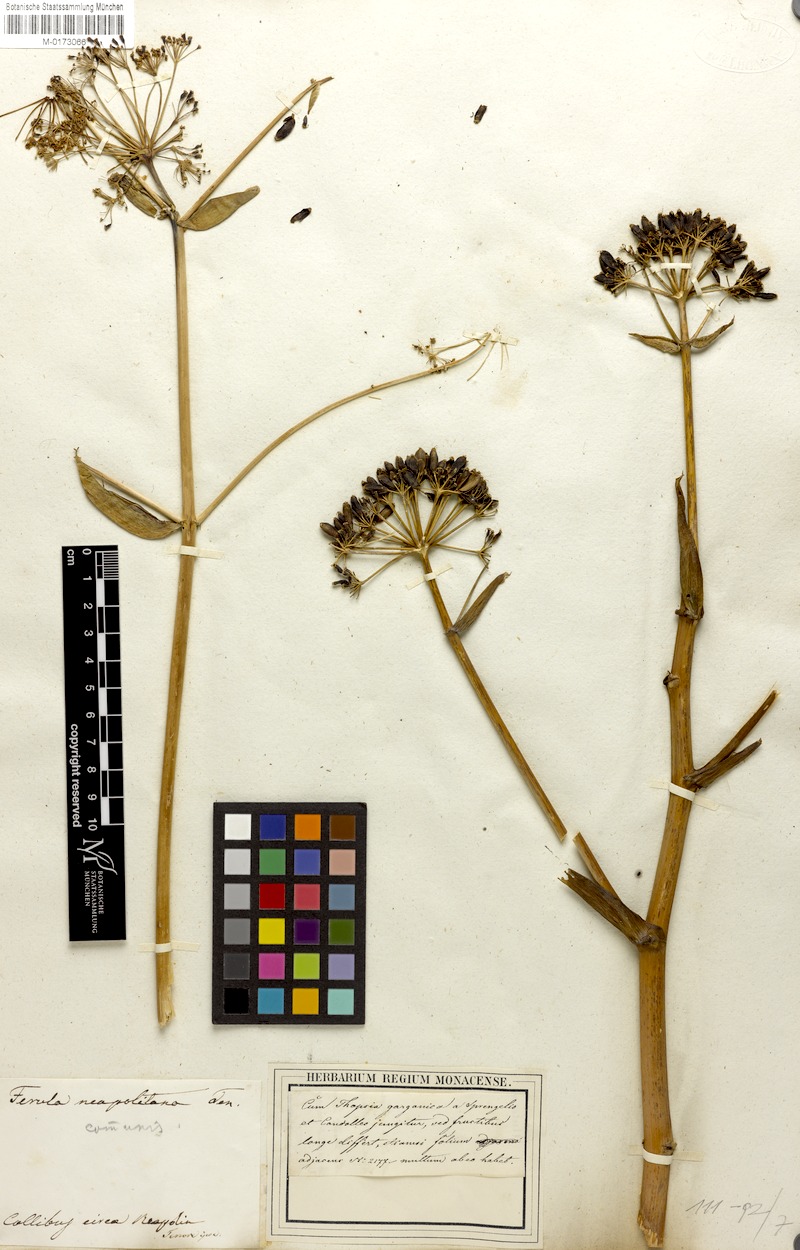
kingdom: Plantae
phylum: Tracheophyta
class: Magnoliopsida
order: Apiales
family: Apiaceae
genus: Ferula
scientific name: Ferula communis
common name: Giant fennel
